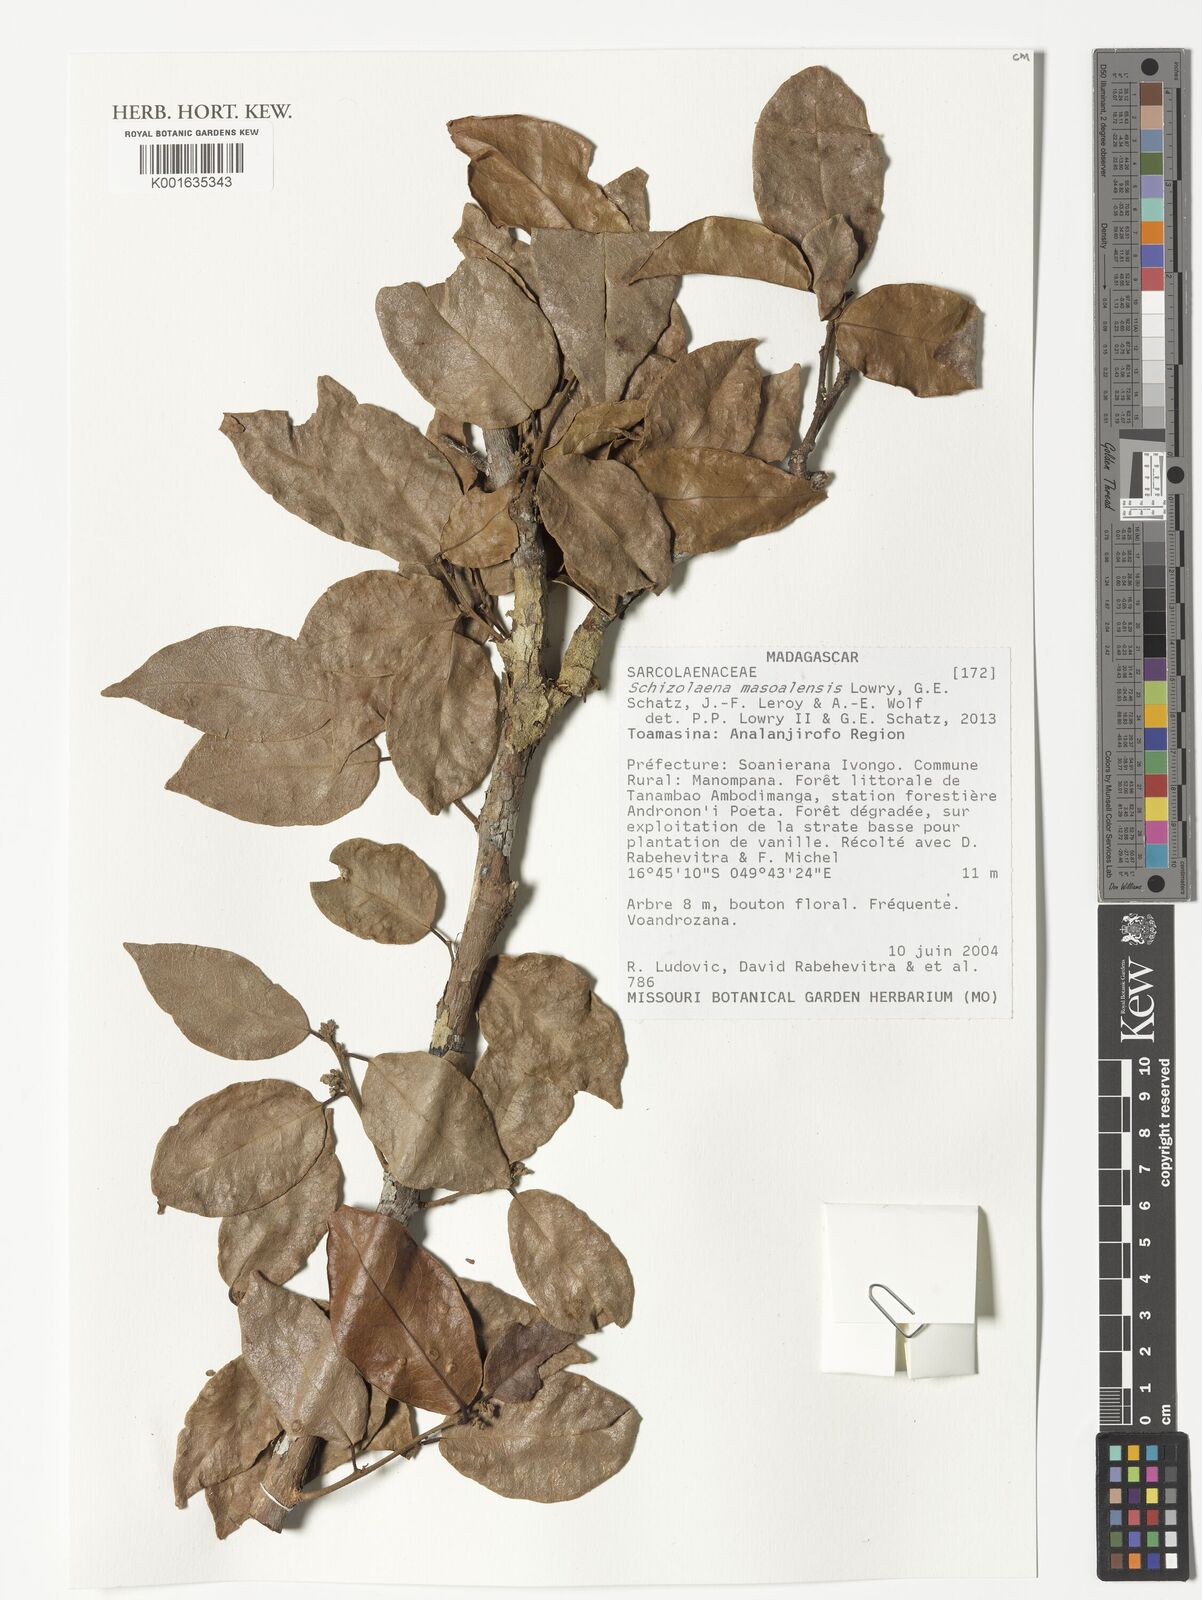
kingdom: Plantae
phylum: Tracheophyta
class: Magnoliopsida
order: Malvales
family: Sarcolaenaceae
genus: Schizolaena
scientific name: Schizolaena masoalensis
